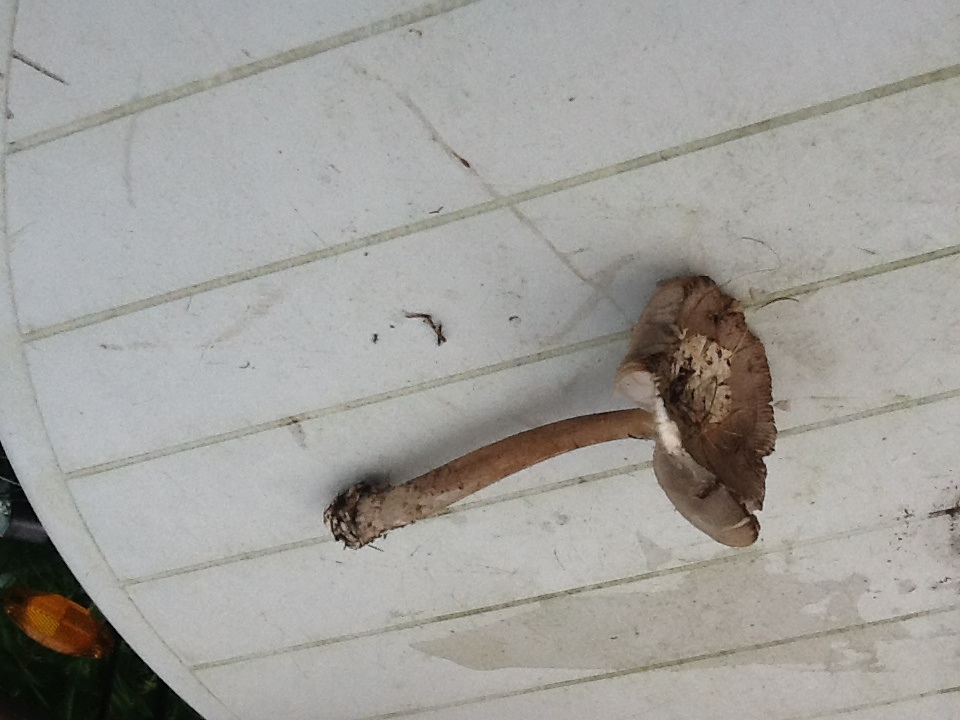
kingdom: Fungi
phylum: Basidiomycota
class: Agaricomycetes
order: Agaricales
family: Amanitaceae
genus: Amanita
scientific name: Amanita submembranacea
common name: gråspættet kam-fluesvamp
